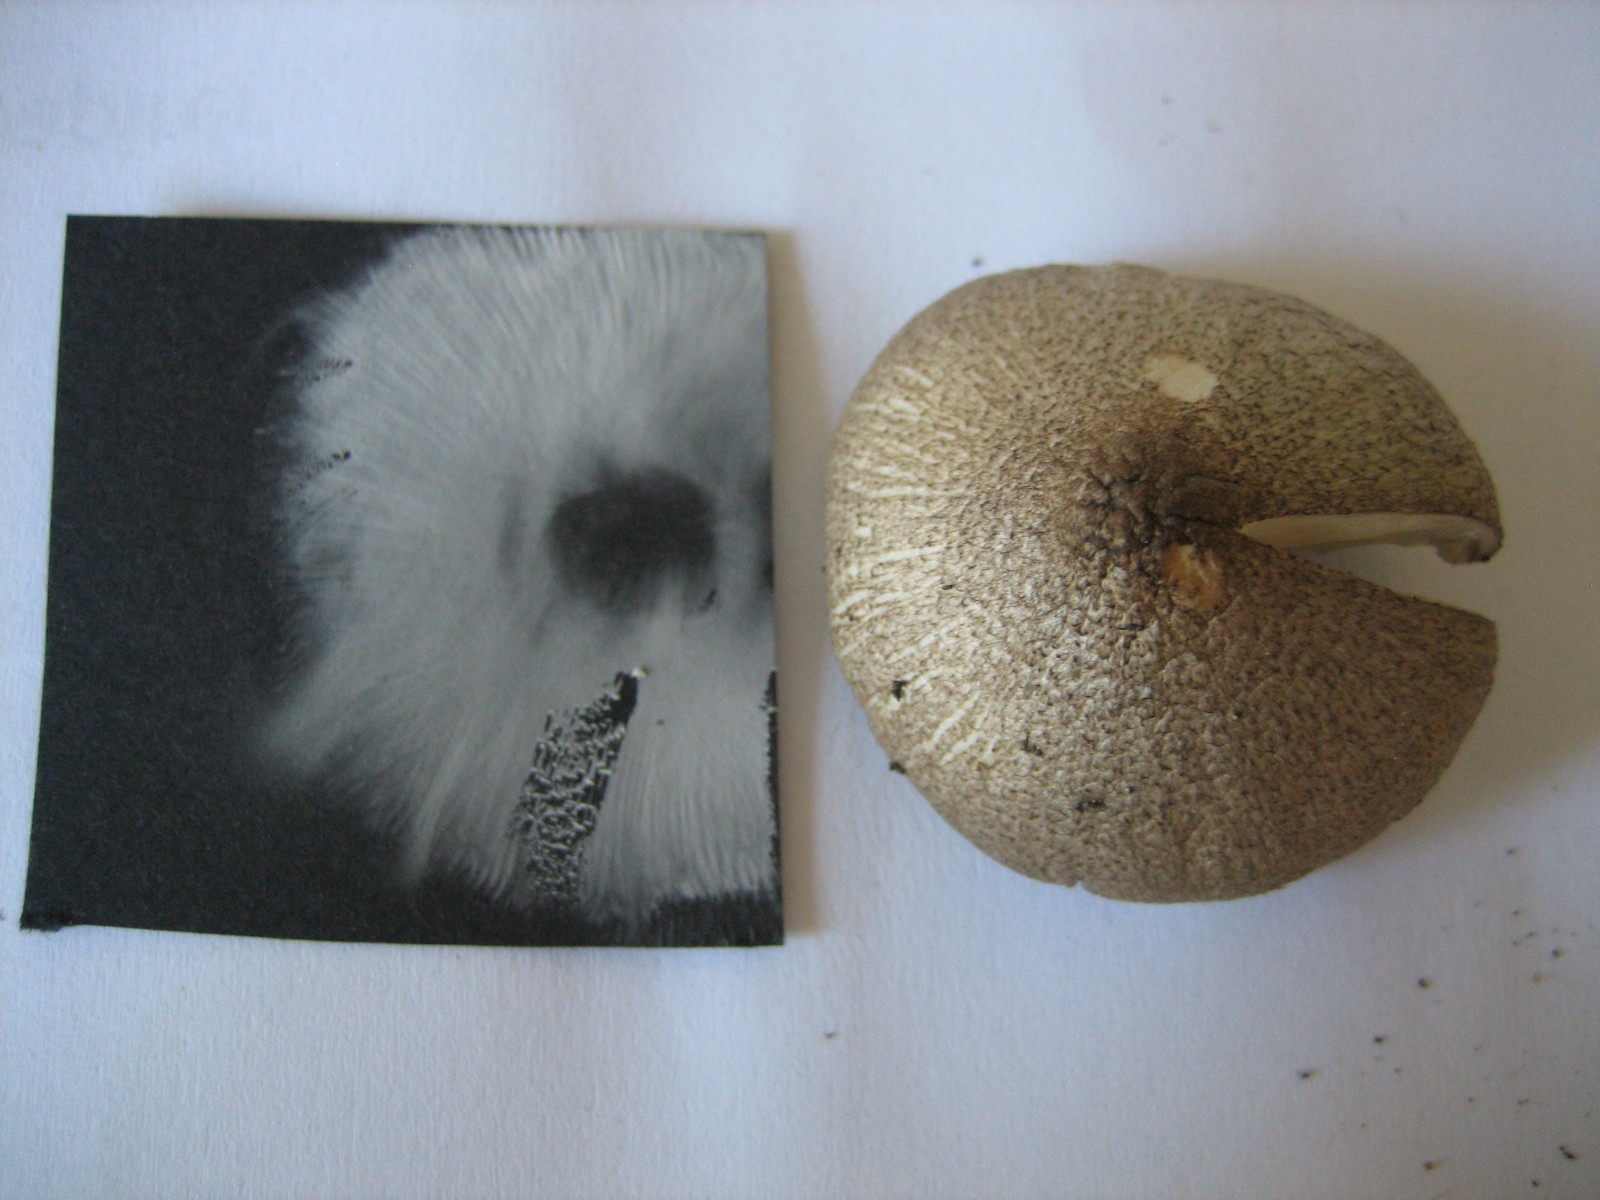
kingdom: Fungi
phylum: Basidiomycota
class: Agaricomycetes
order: Agaricales
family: Tricholomataceae
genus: Tricholoma
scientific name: Tricholoma
